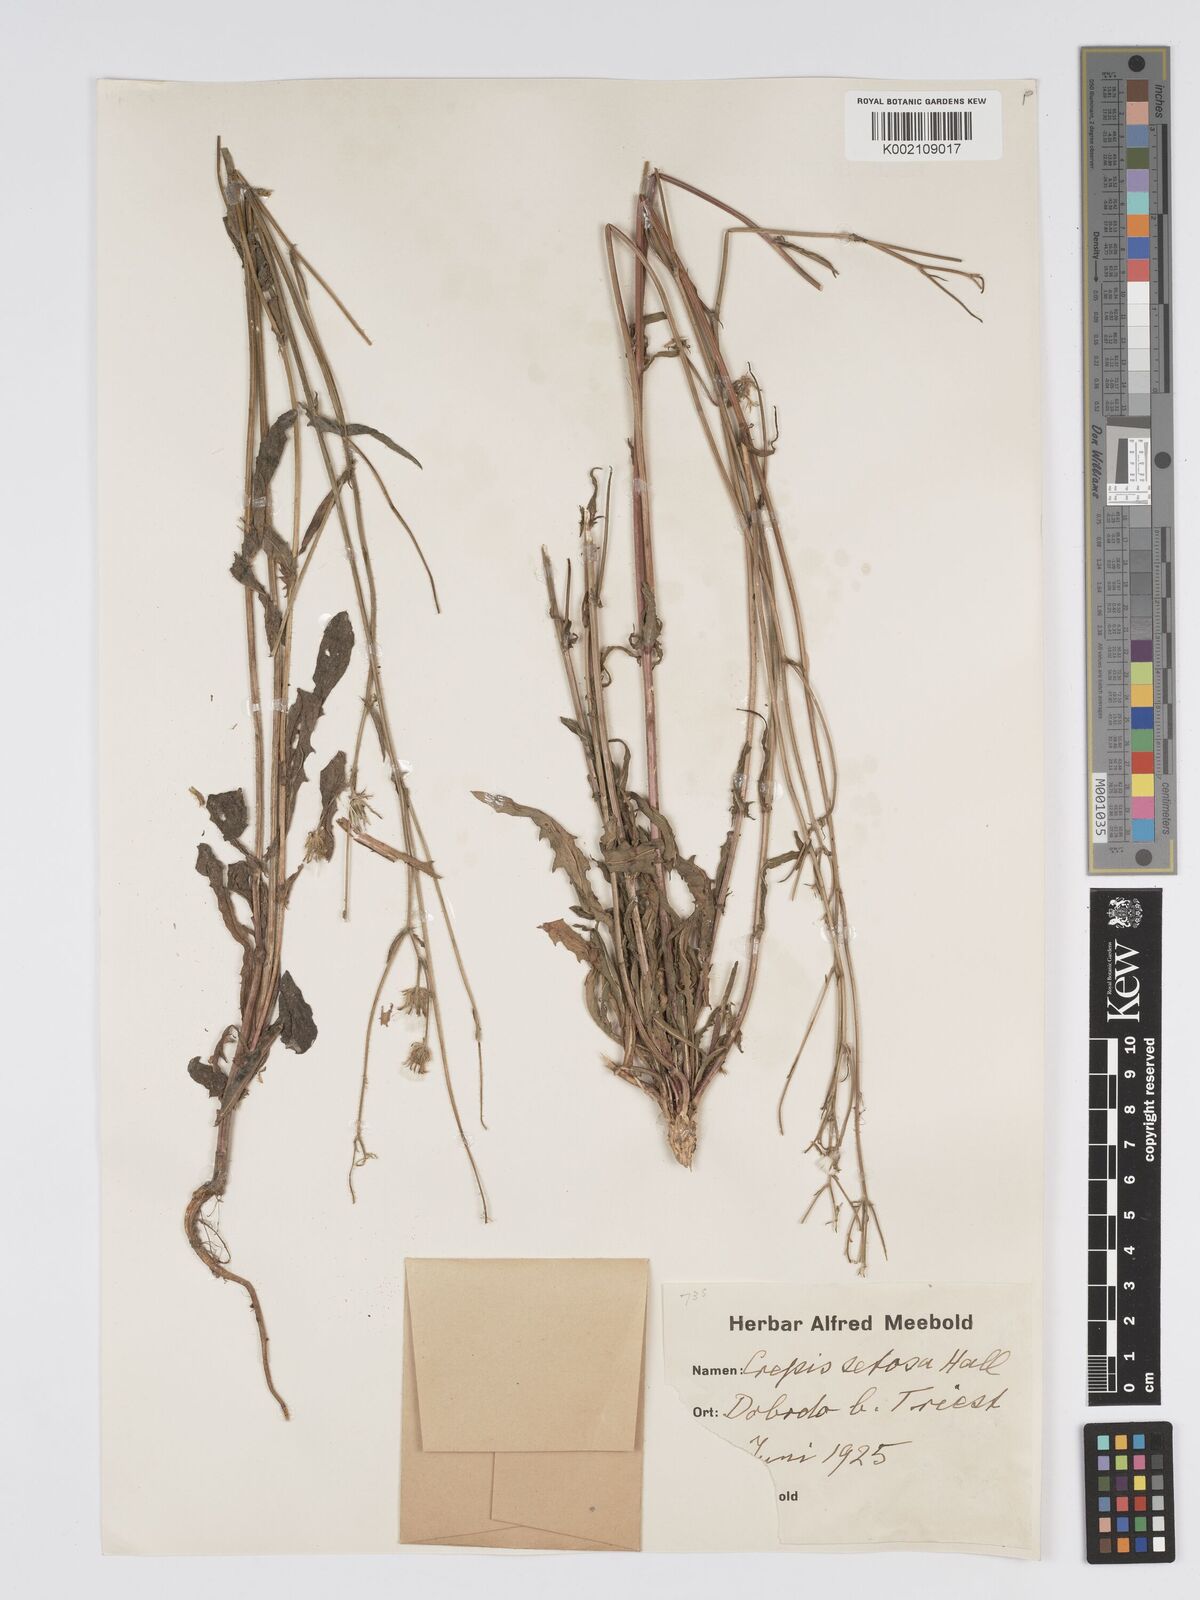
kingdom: Plantae
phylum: Tracheophyta
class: Magnoliopsida
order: Asterales
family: Asteraceae
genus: Crepis
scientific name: Crepis setosa
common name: Bristly hawk's-beard
